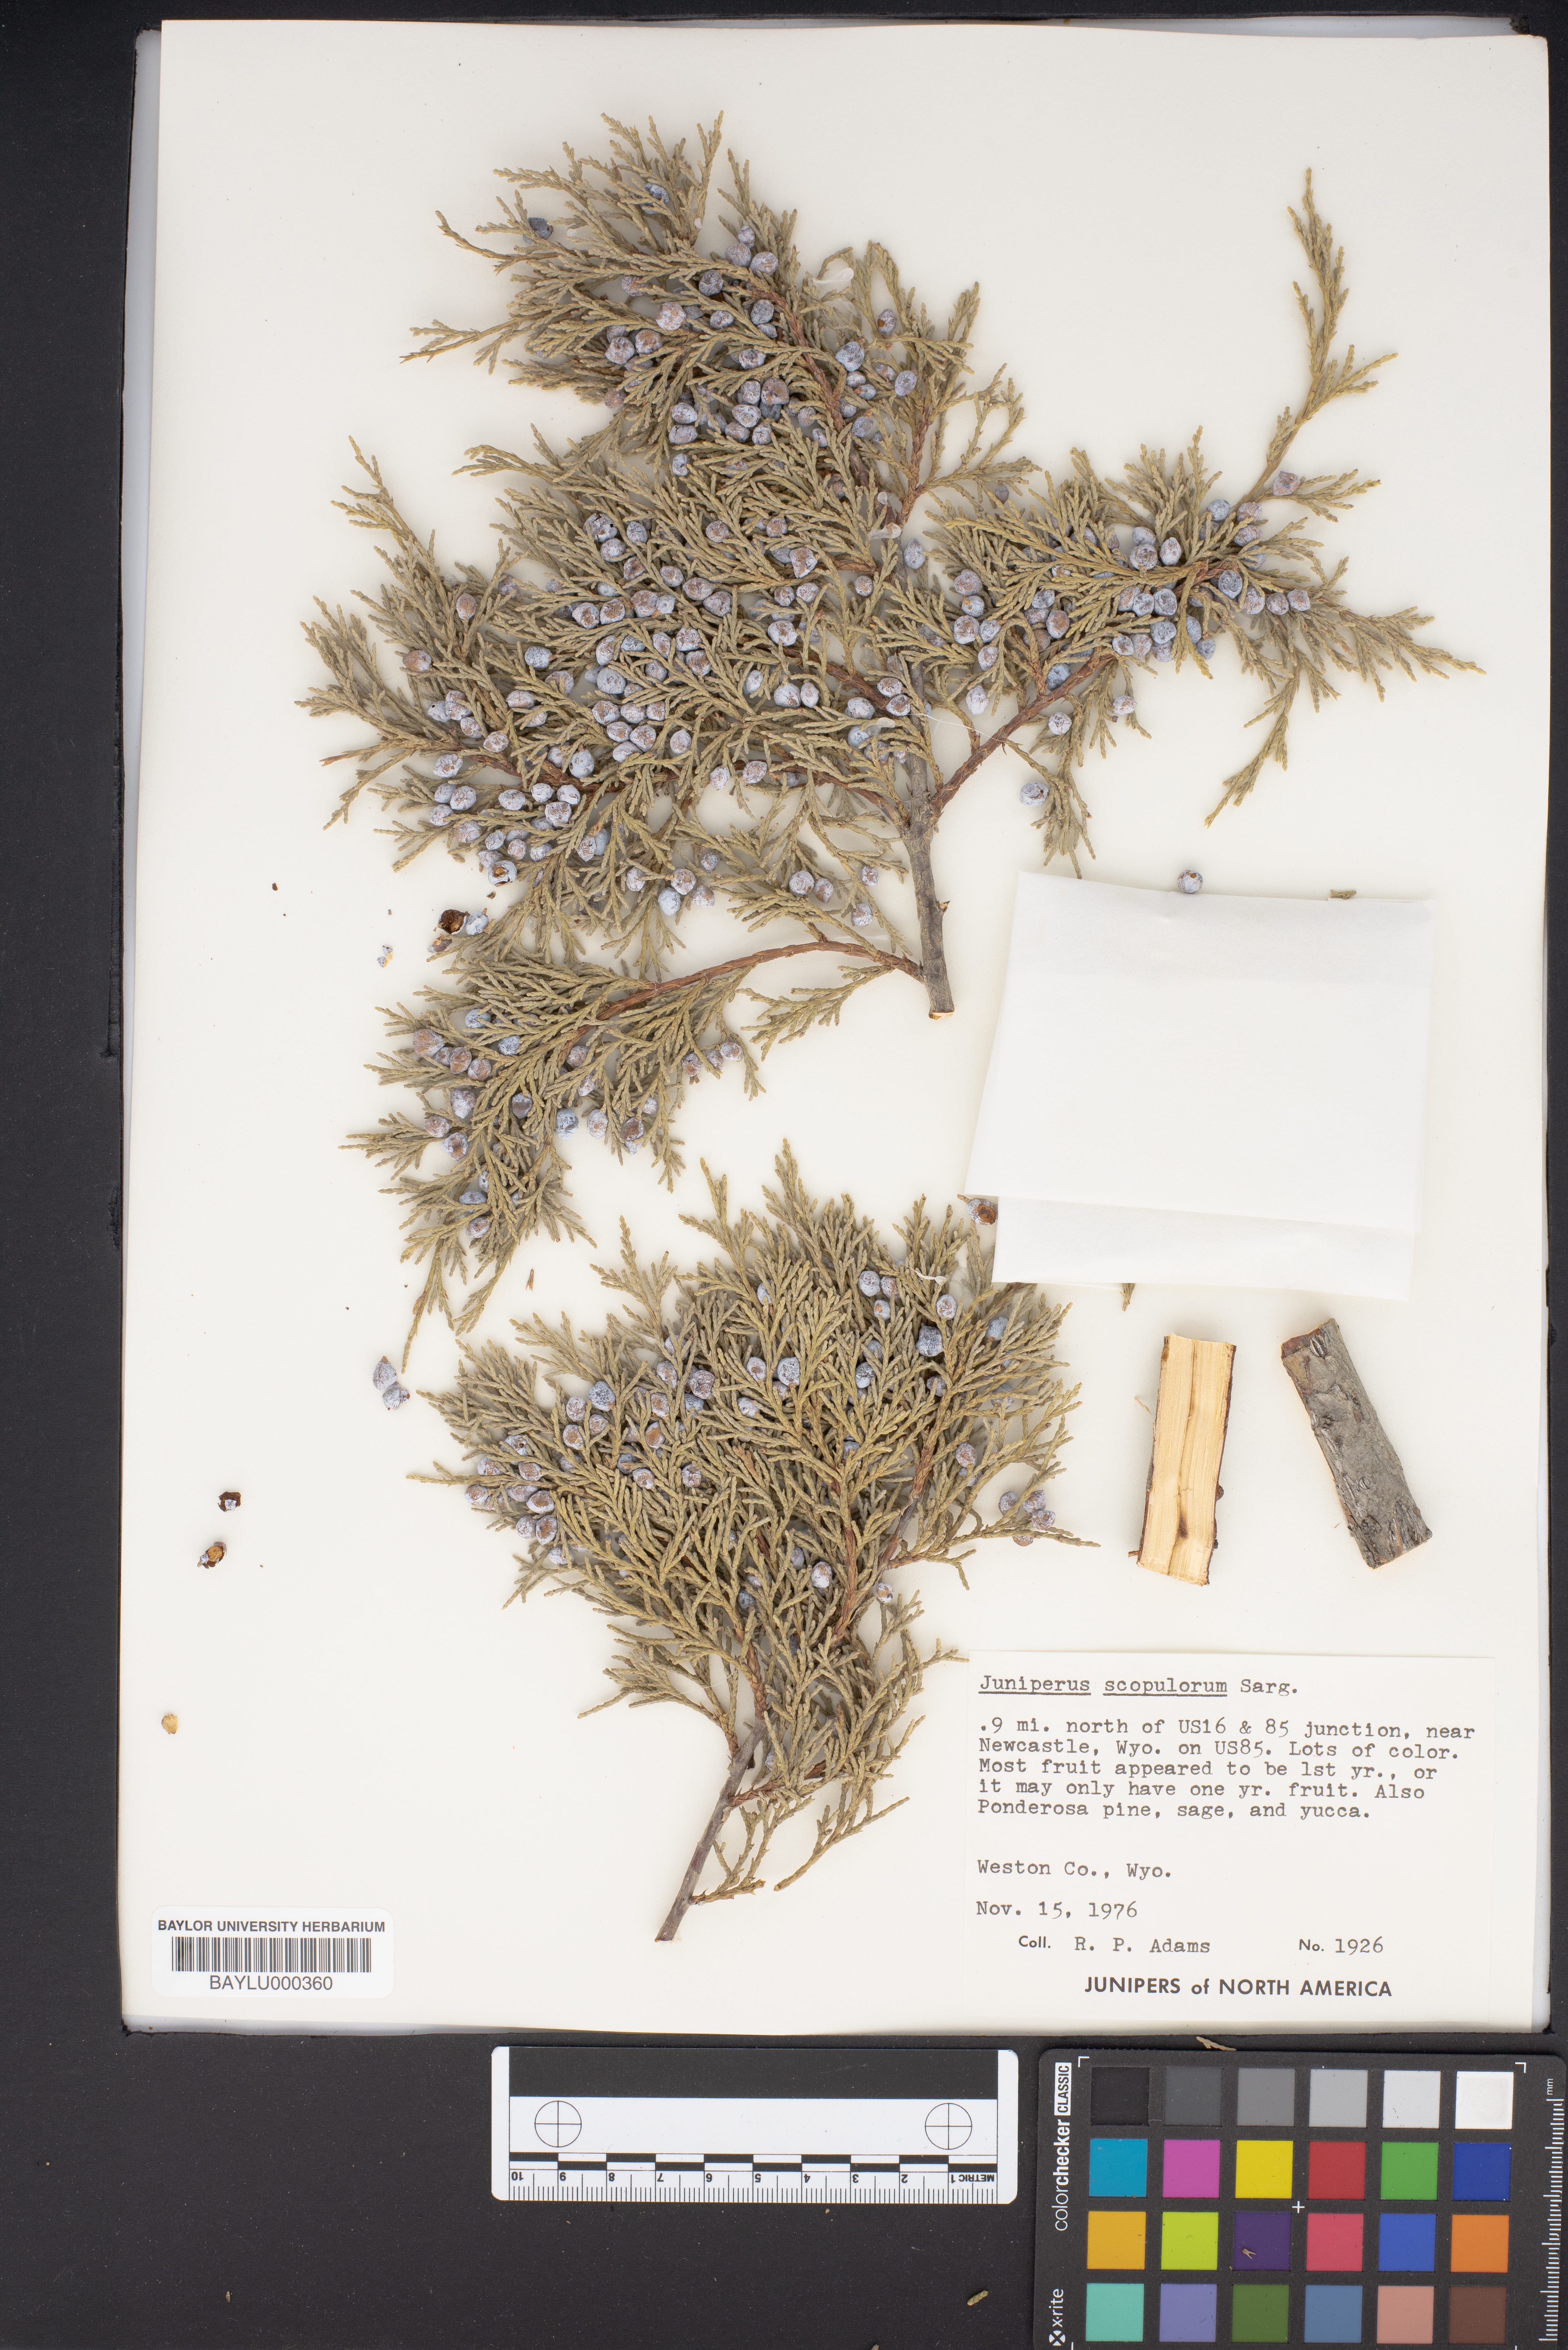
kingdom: Plantae
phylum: Tracheophyta
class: Pinopsida
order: Pinales
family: Cupressaceae
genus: Juniperus
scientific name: Juniperus scopulorum
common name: Rocky mountain juniper
